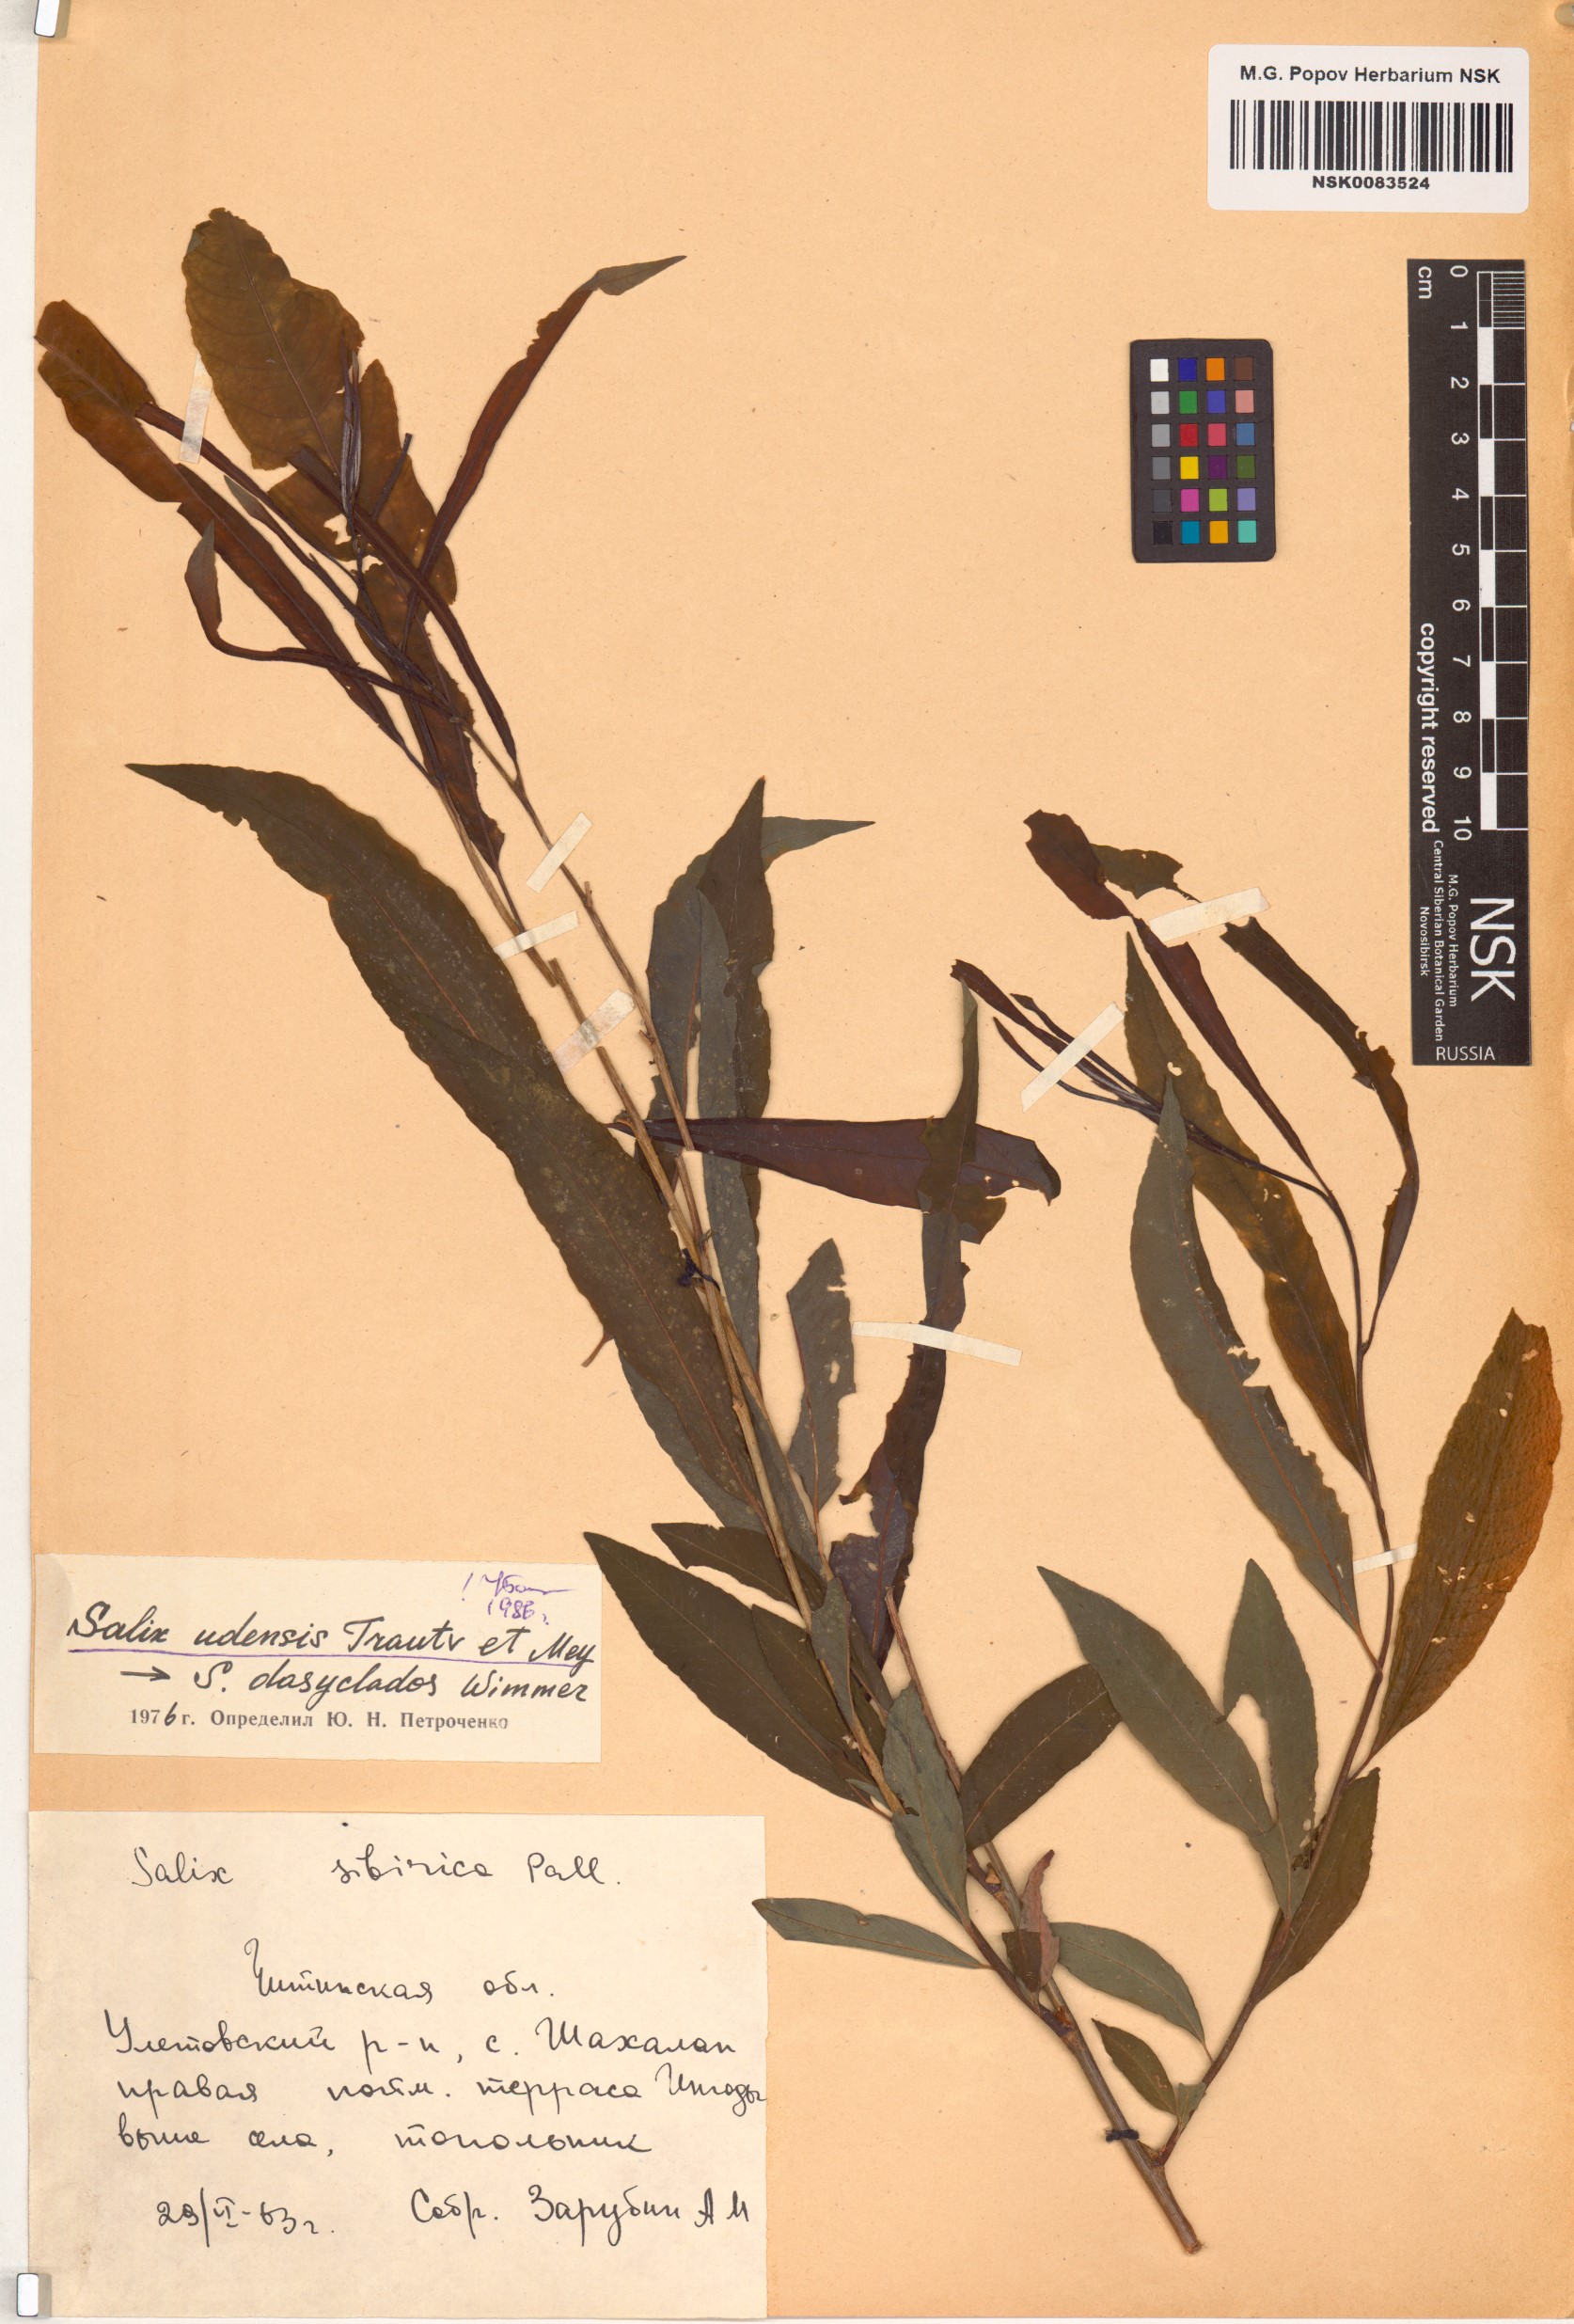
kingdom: Plantae
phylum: Tracheophyta
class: Magnoliopsida
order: Malpighiales
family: Salicaceae
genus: Salix
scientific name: Salix udensis
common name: Sachalin willow
